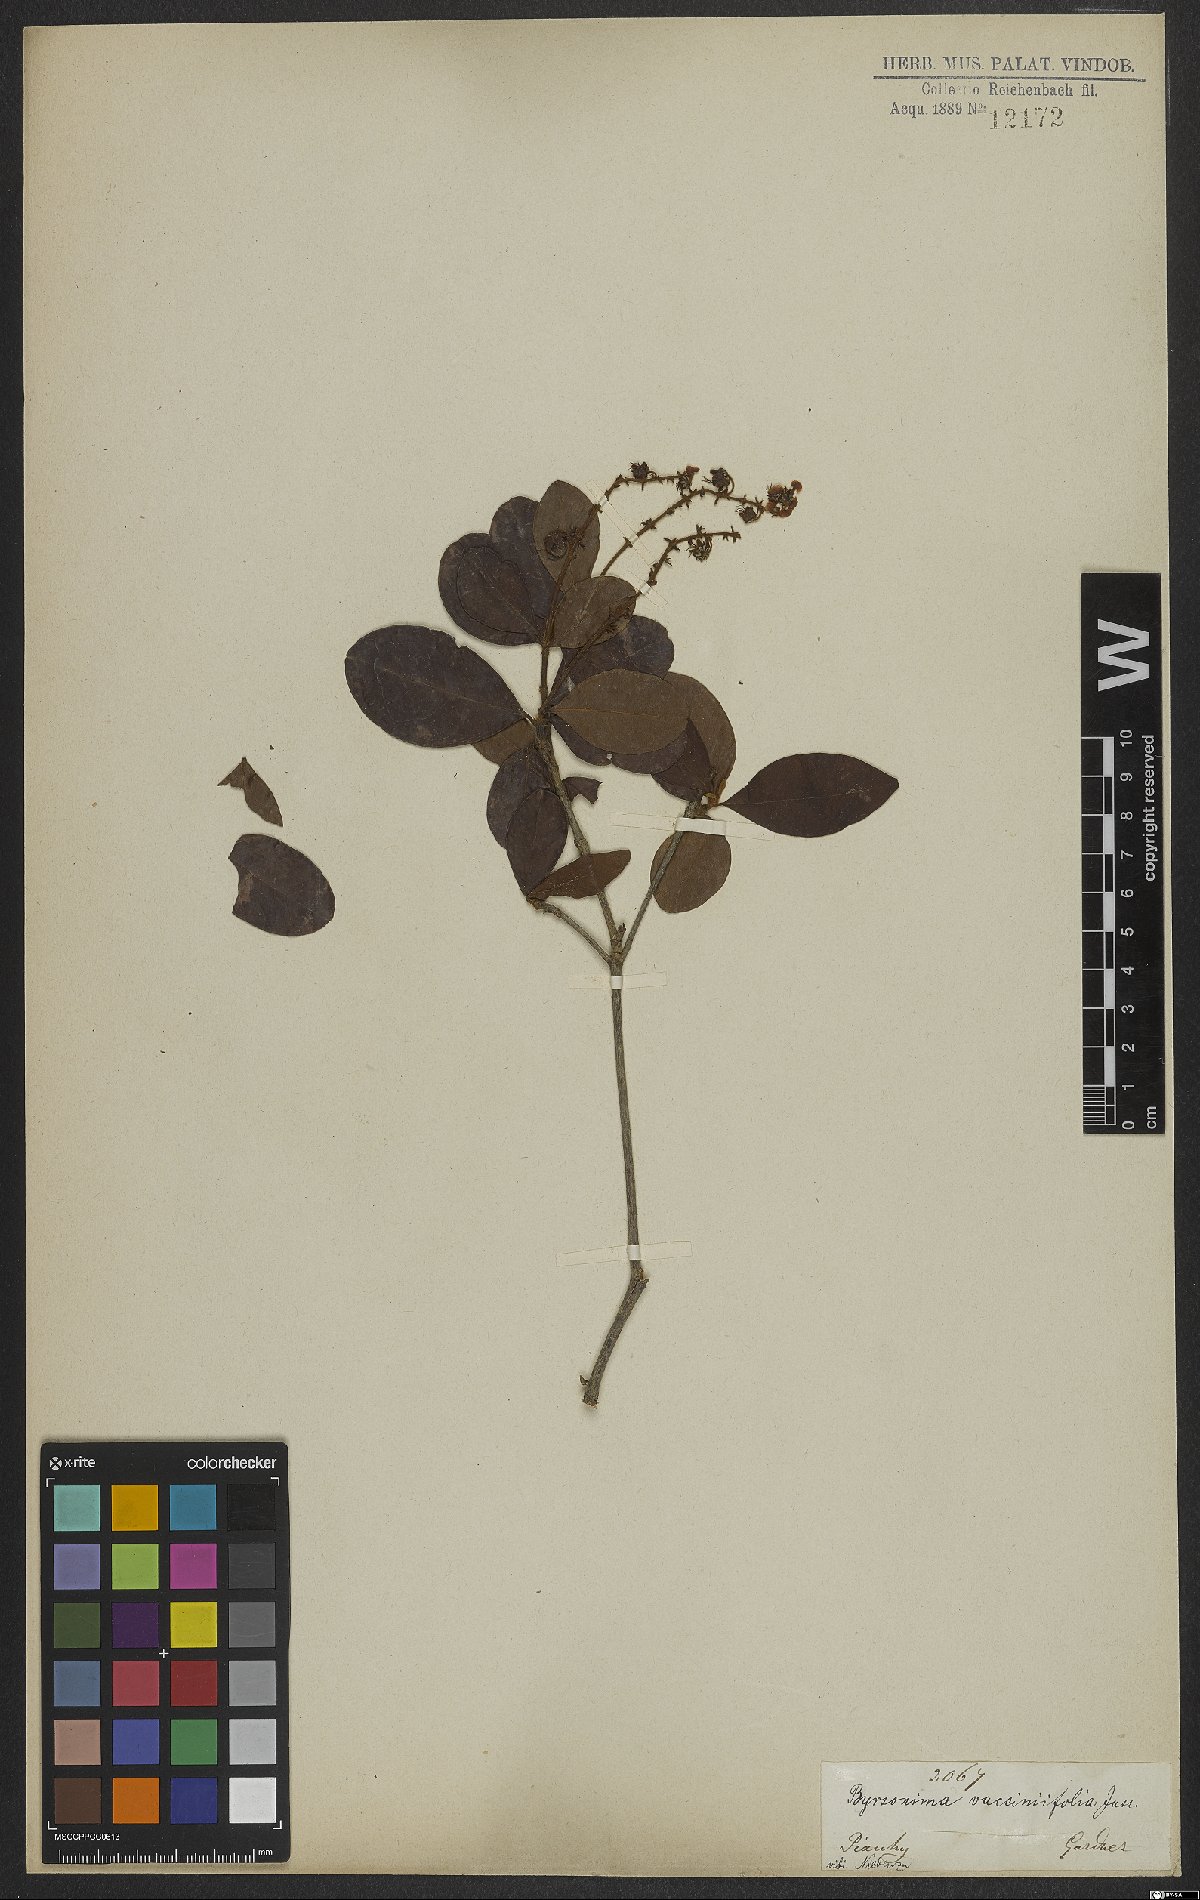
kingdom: Plantae
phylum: Tracheophyta
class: Magnoliopsida
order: Malpighiales
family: Malpighiaceae
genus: Byrsonima
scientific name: Byrsonima vacciniifolia
